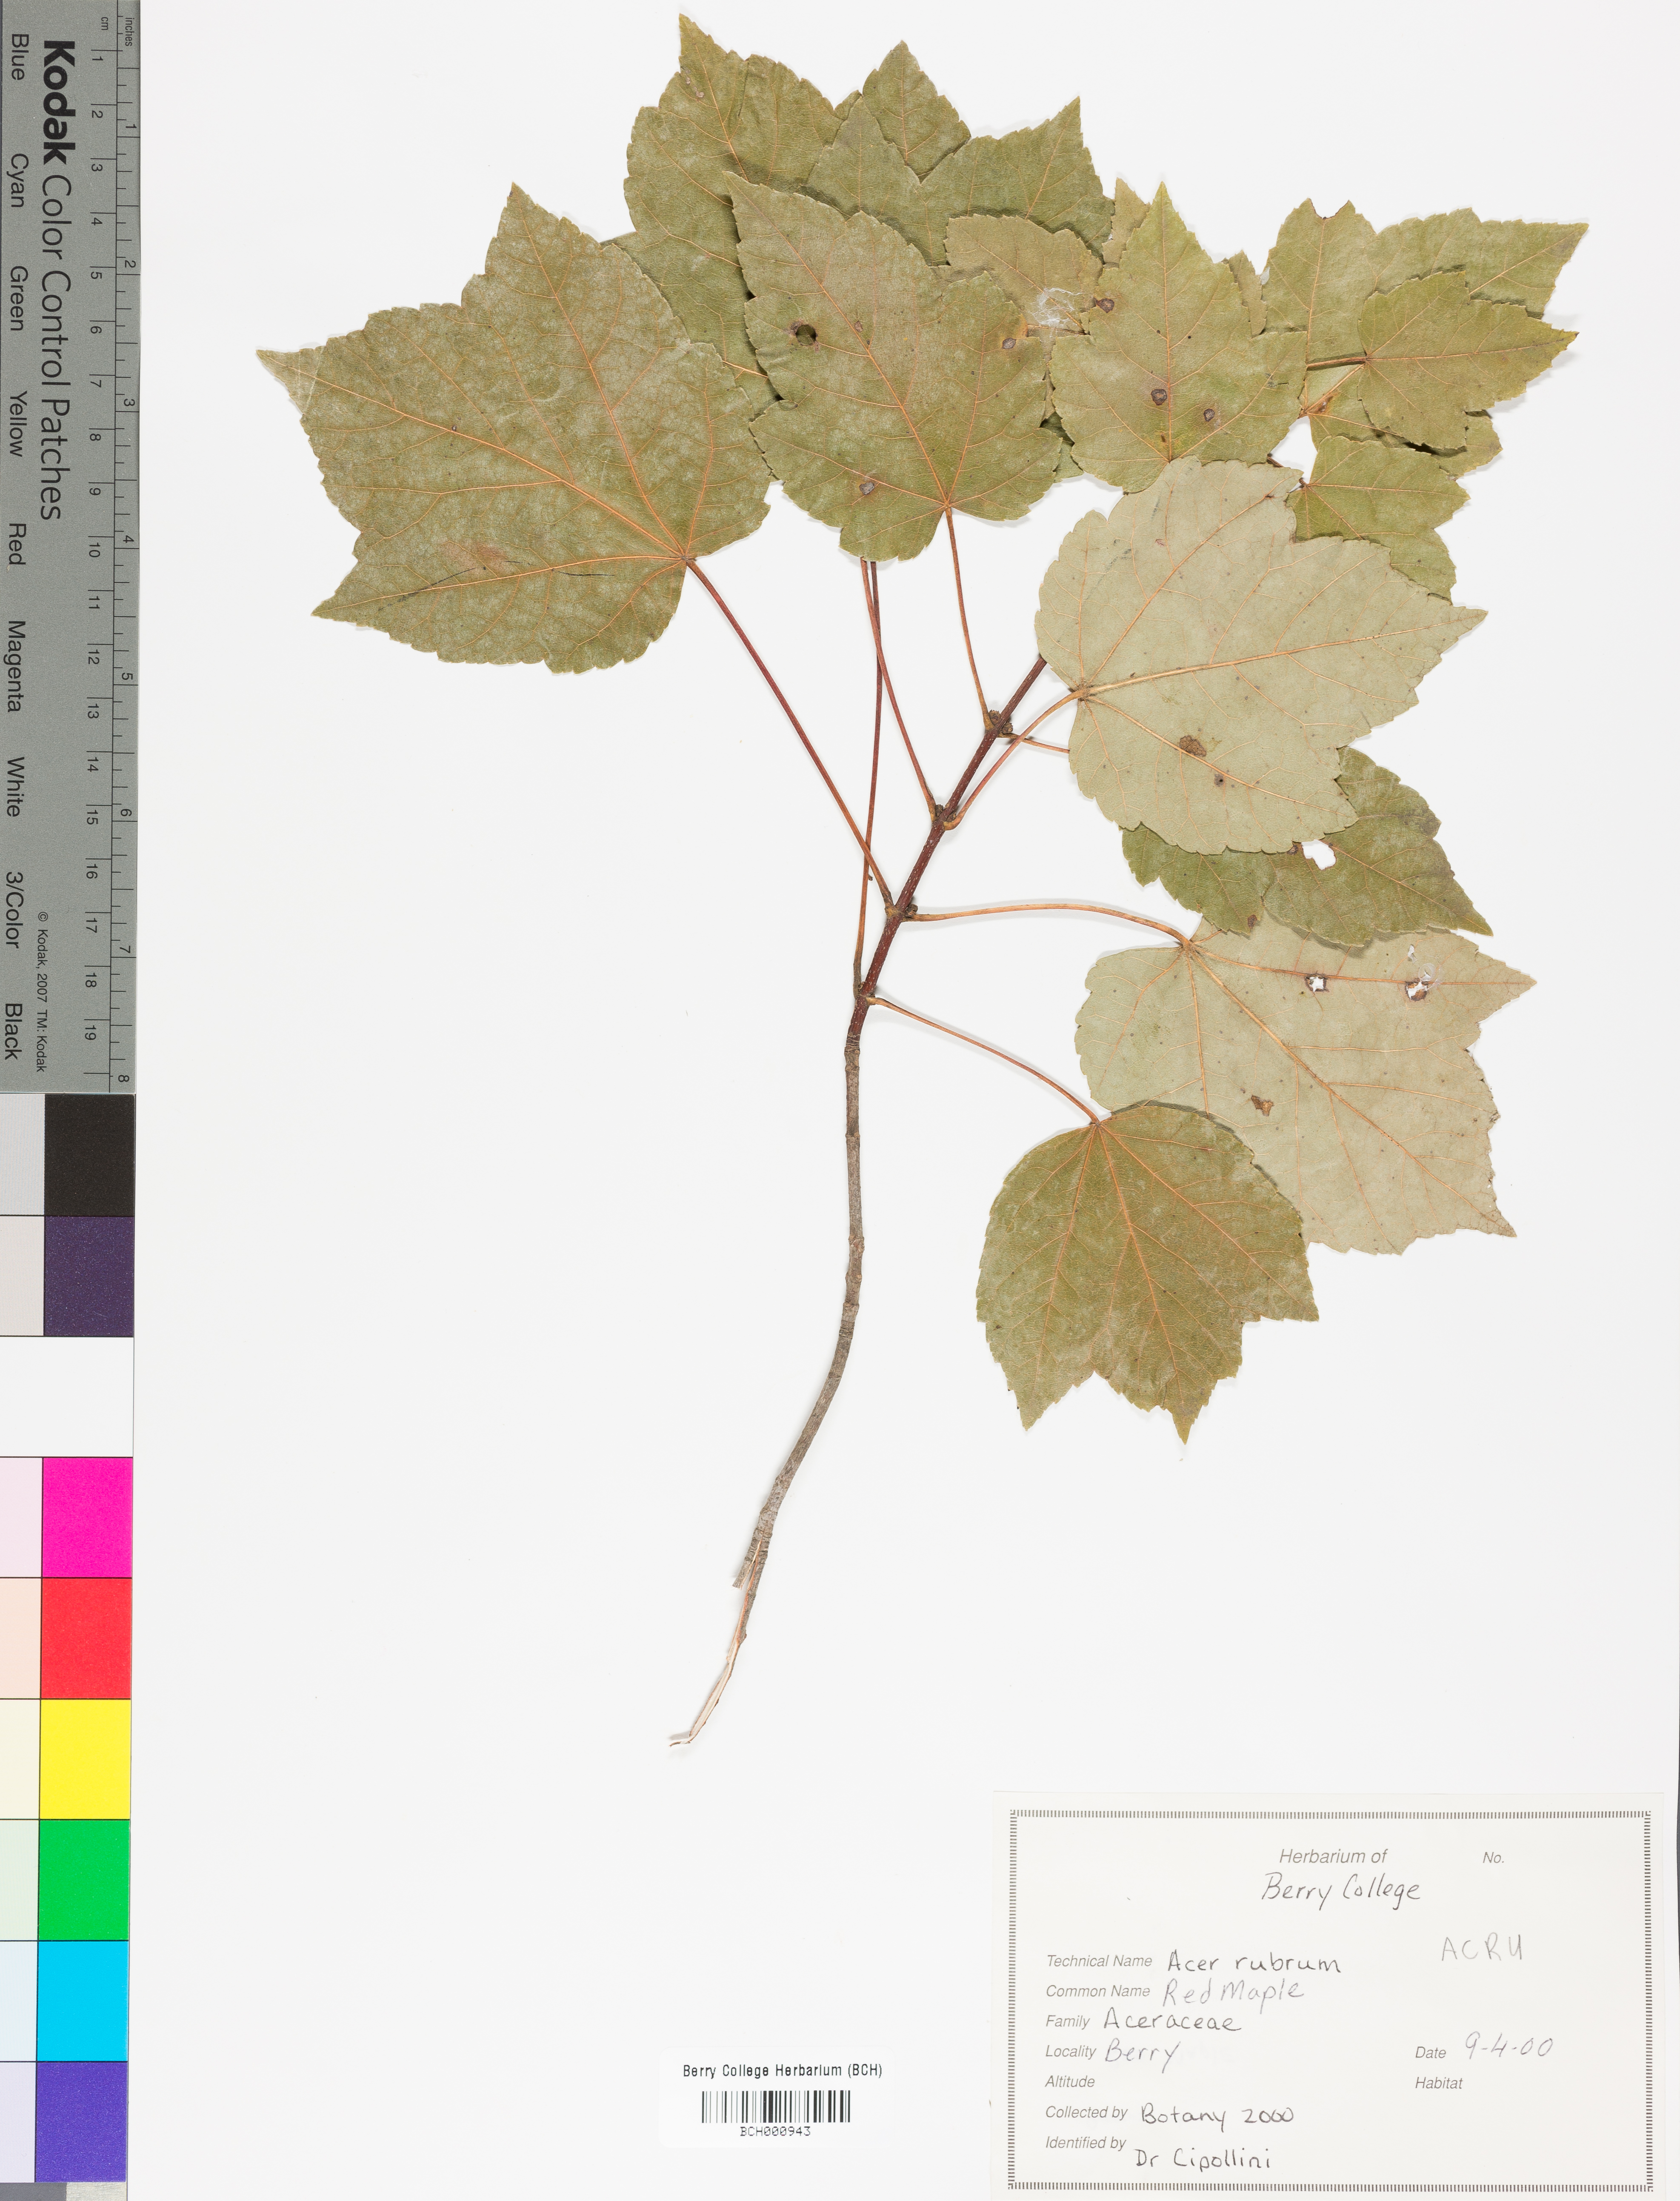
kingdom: Plantae
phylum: Tracheophyta
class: Magnoliopsida
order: Sapindales
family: Sapindaceae
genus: Acer
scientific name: Acer rubrum
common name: Red maple
